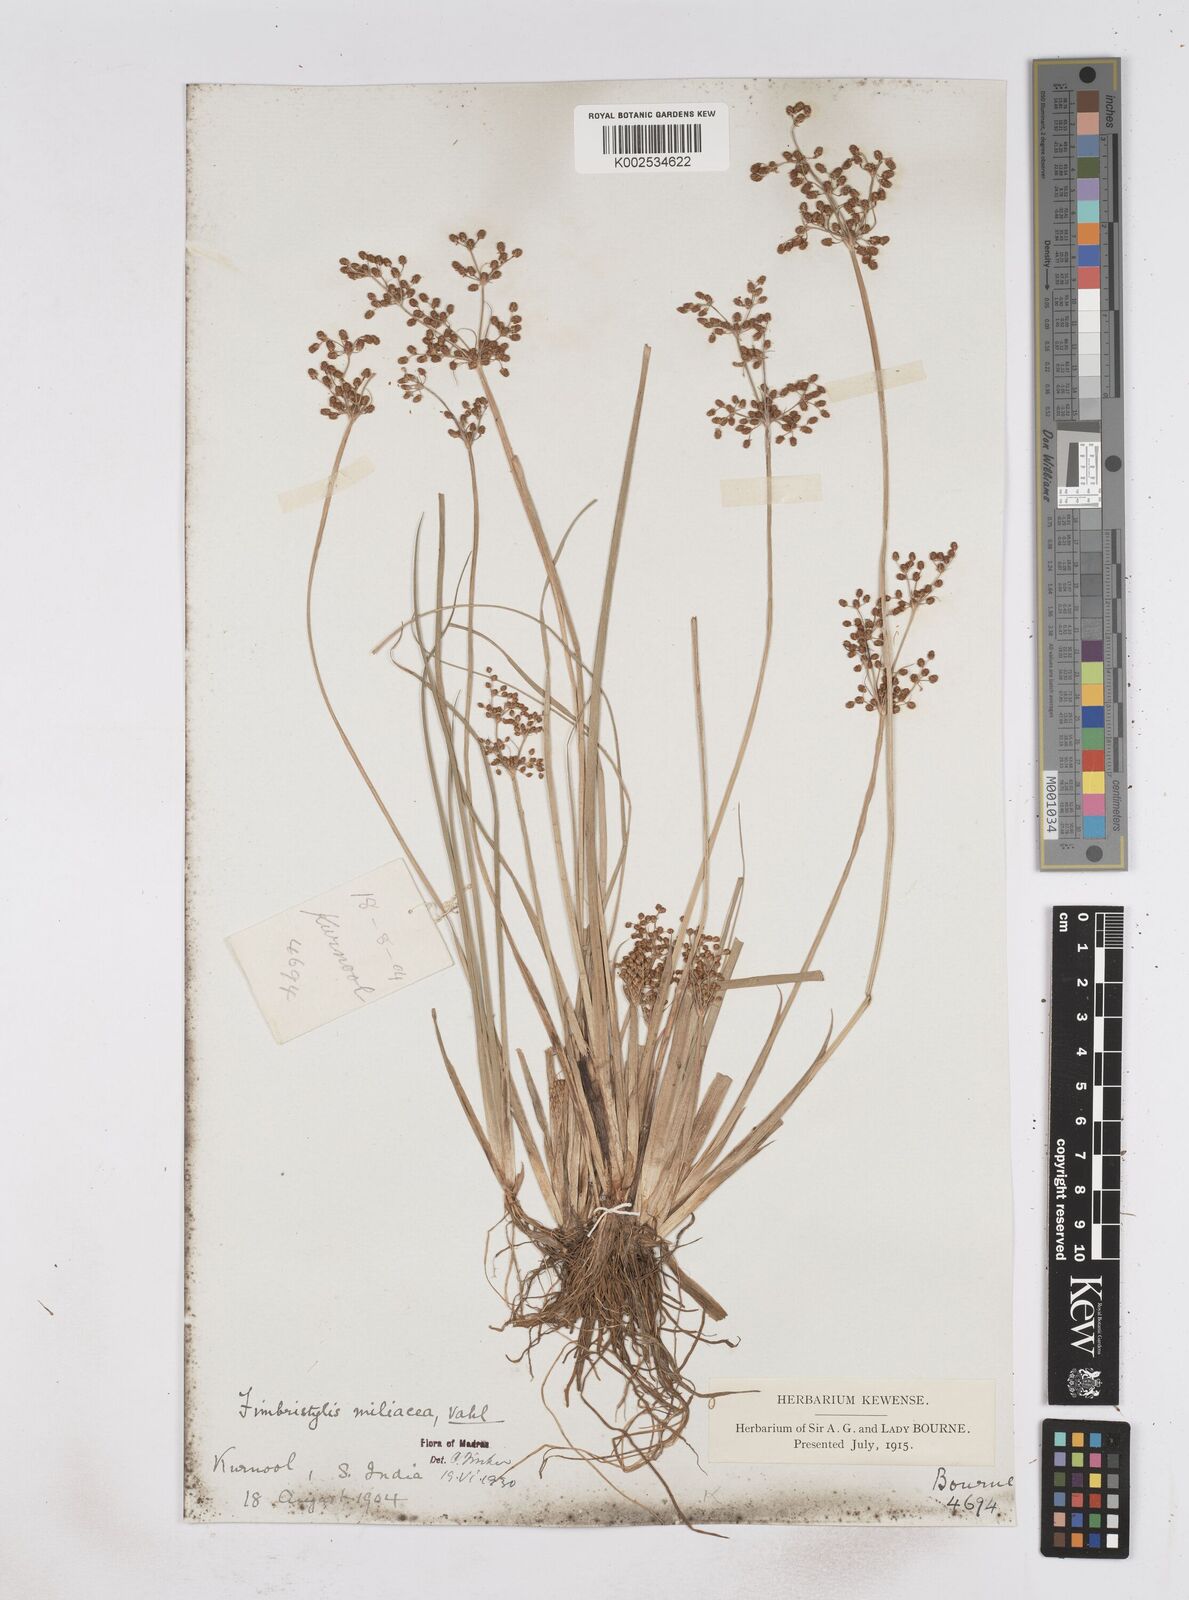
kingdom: Plantae
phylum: Tracheophyta
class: Liliopsida
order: Poales
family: Cyperaceae
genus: Fimbristylis
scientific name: Fimbristylis littoralis
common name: Fimbry
